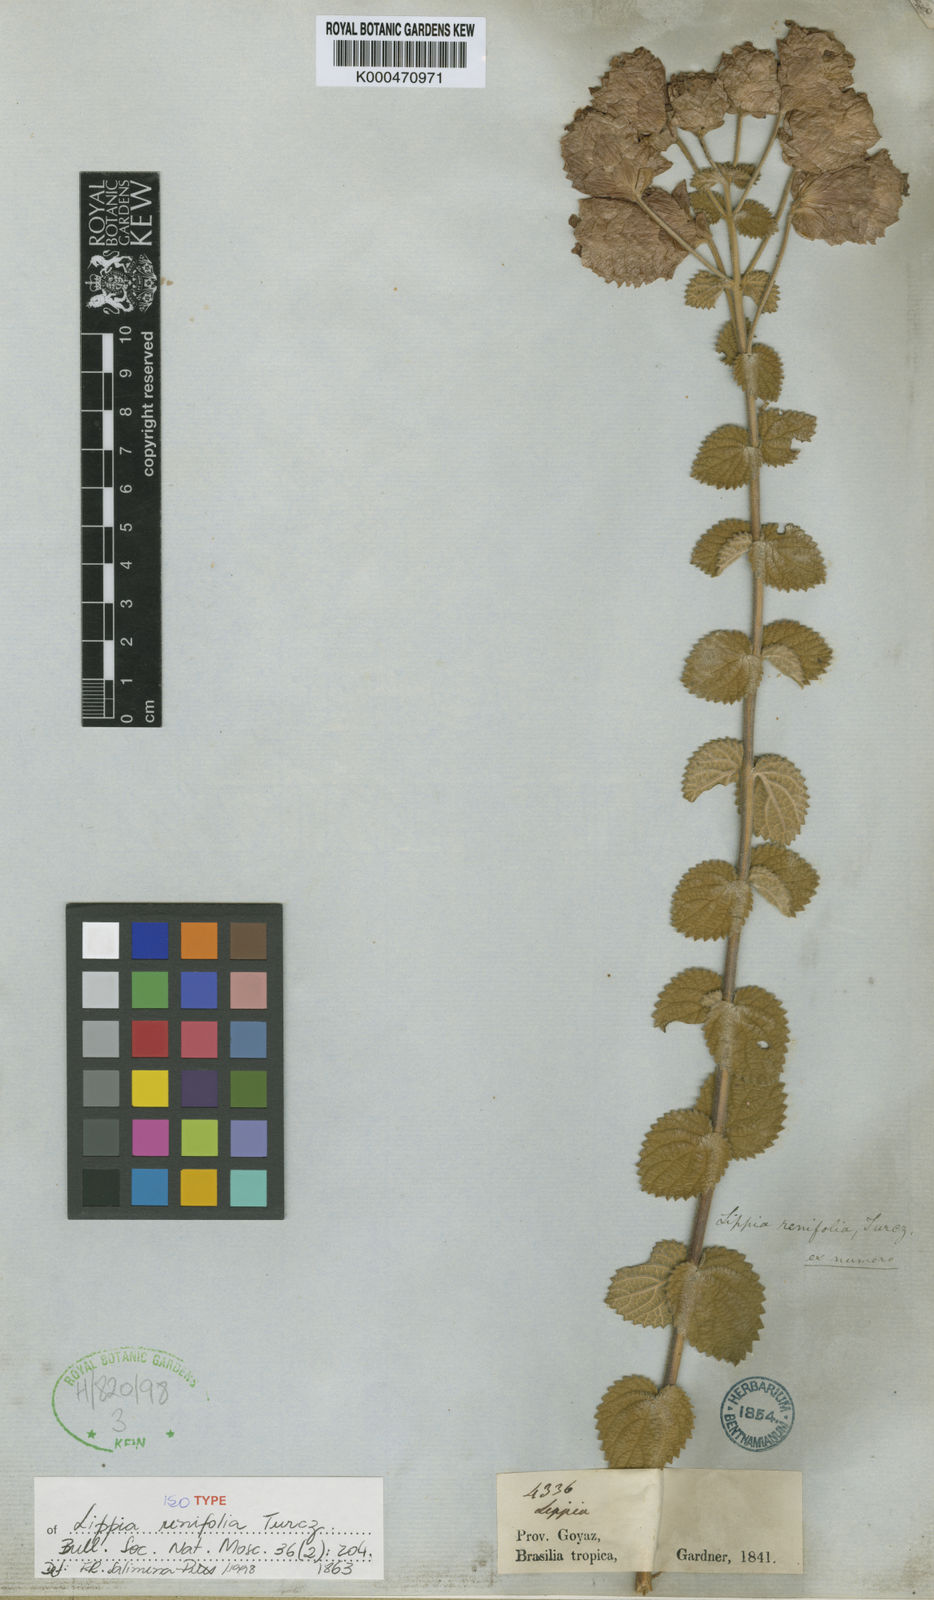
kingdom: Plantae
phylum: Tracheophyta
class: Magnoliopsida
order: Lamiales
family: Verbenaceae
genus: Lippia
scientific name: Lippia renifolia
